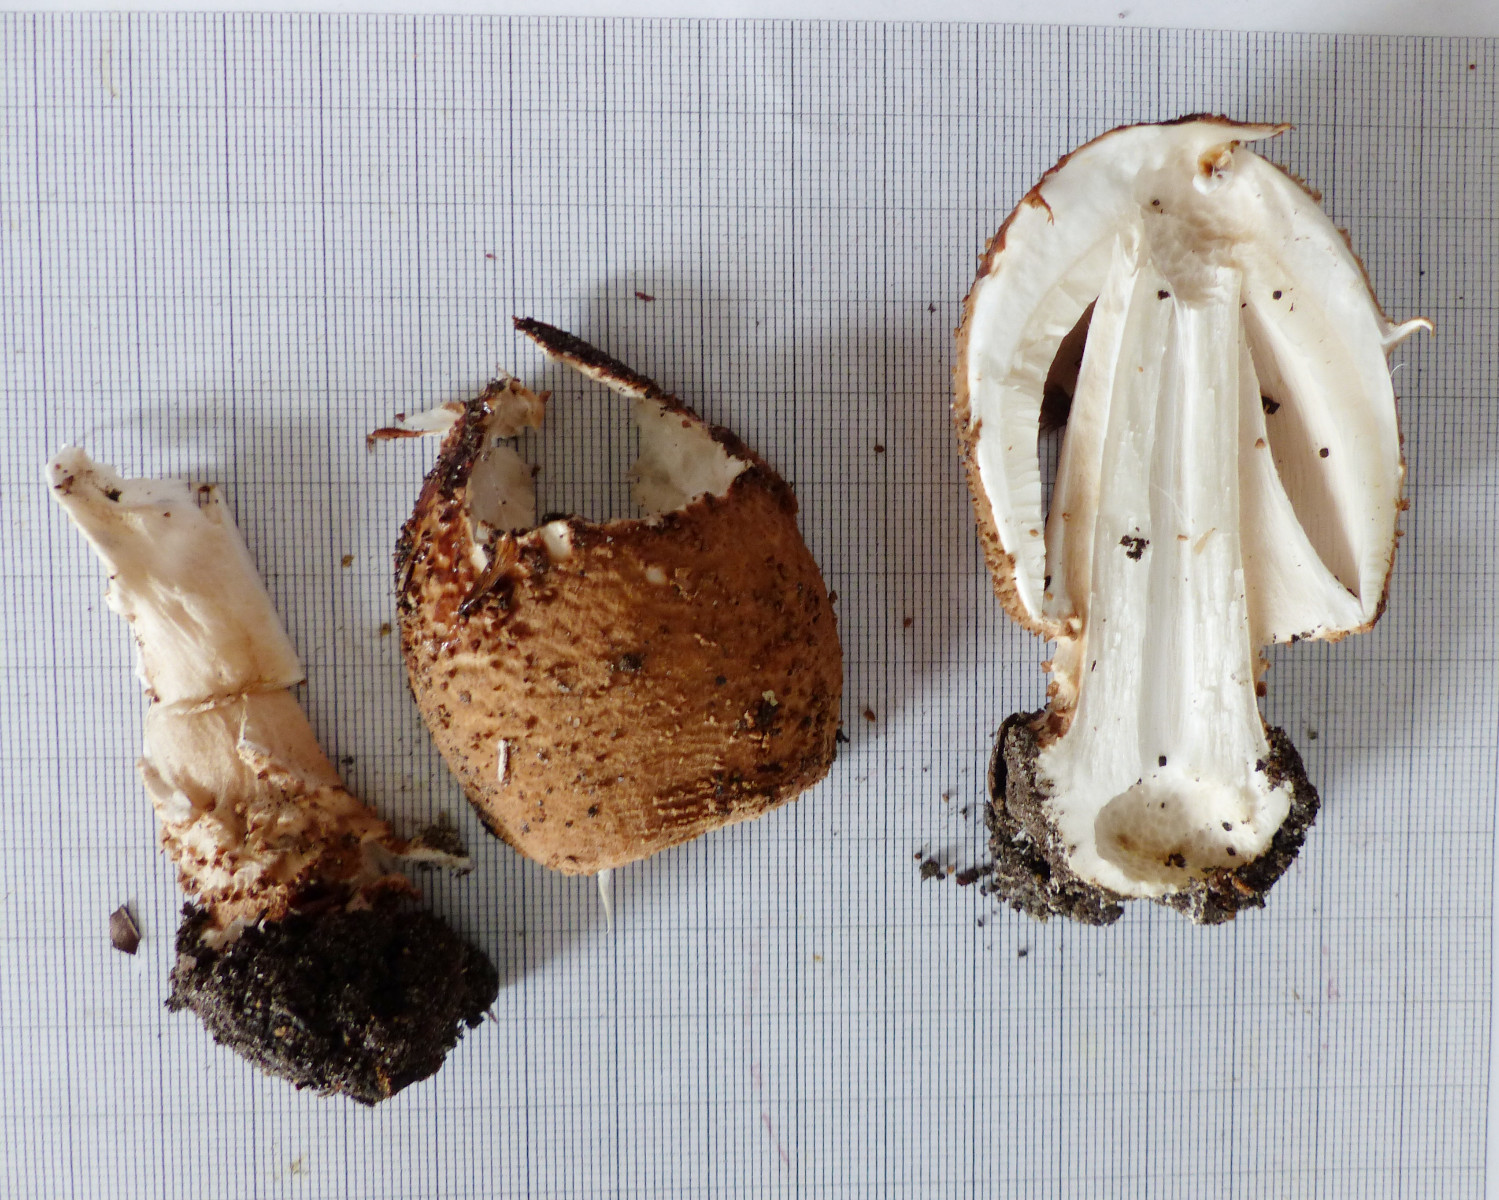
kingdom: Fungi
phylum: Basidiomycota
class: Agaricomycetes
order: Agaricales
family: Agaricaceae
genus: Echinoderma
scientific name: Echinoderma asperum
